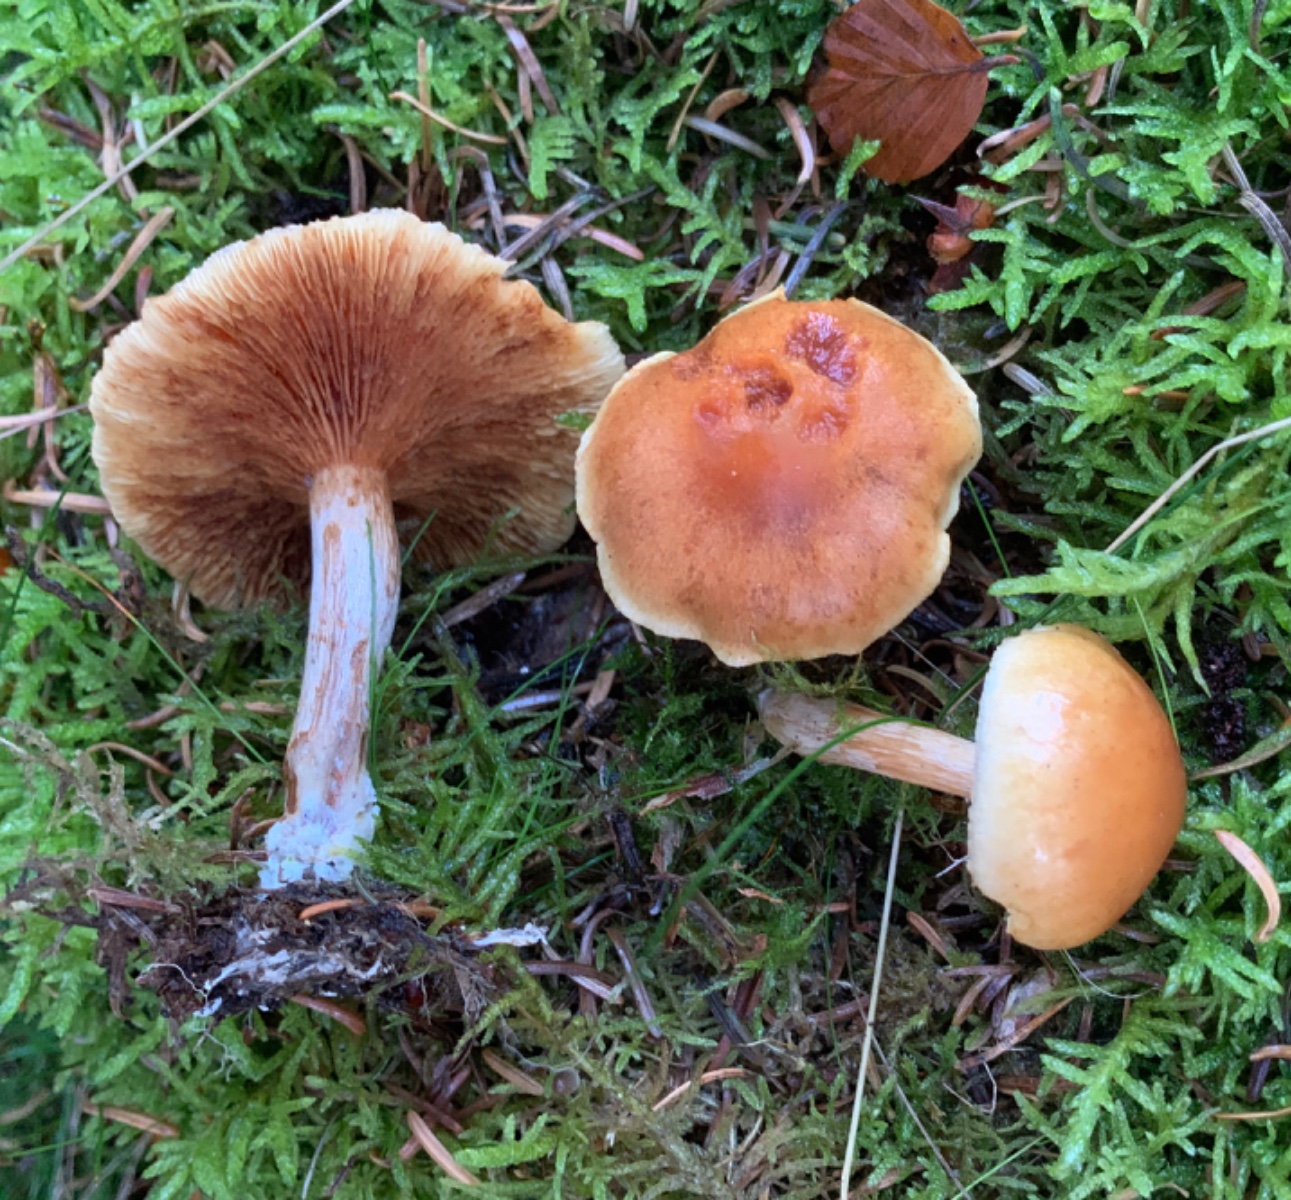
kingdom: Fungi
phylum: Basidiomycota
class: Agaricomycetes
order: Agaricales
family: Hymenogastraceae
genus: Gymnopilus
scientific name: Gymnopilus penetrans
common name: plettet flammehat
